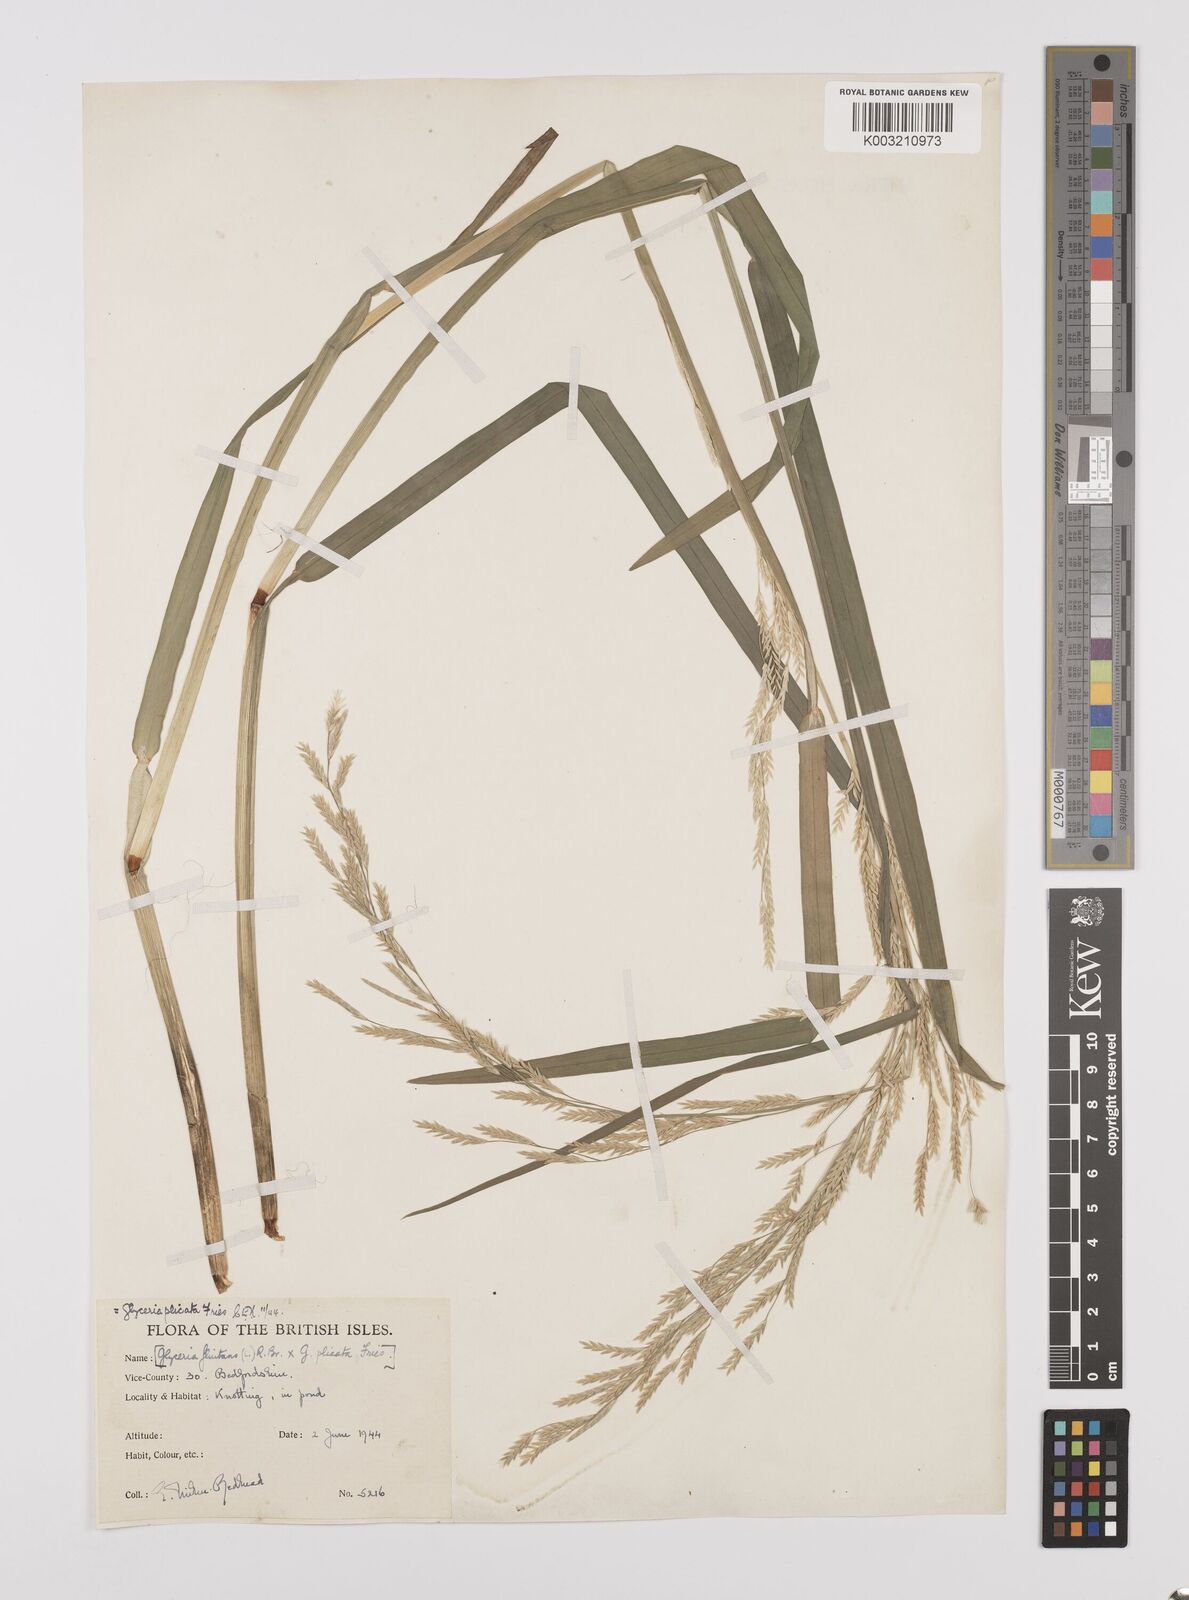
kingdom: Plantae
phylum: Tracheophyta
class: Liliopsida
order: Poales
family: Poaceae
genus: Glyceria
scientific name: Glyceria notata
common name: Plicate sweet-grass
